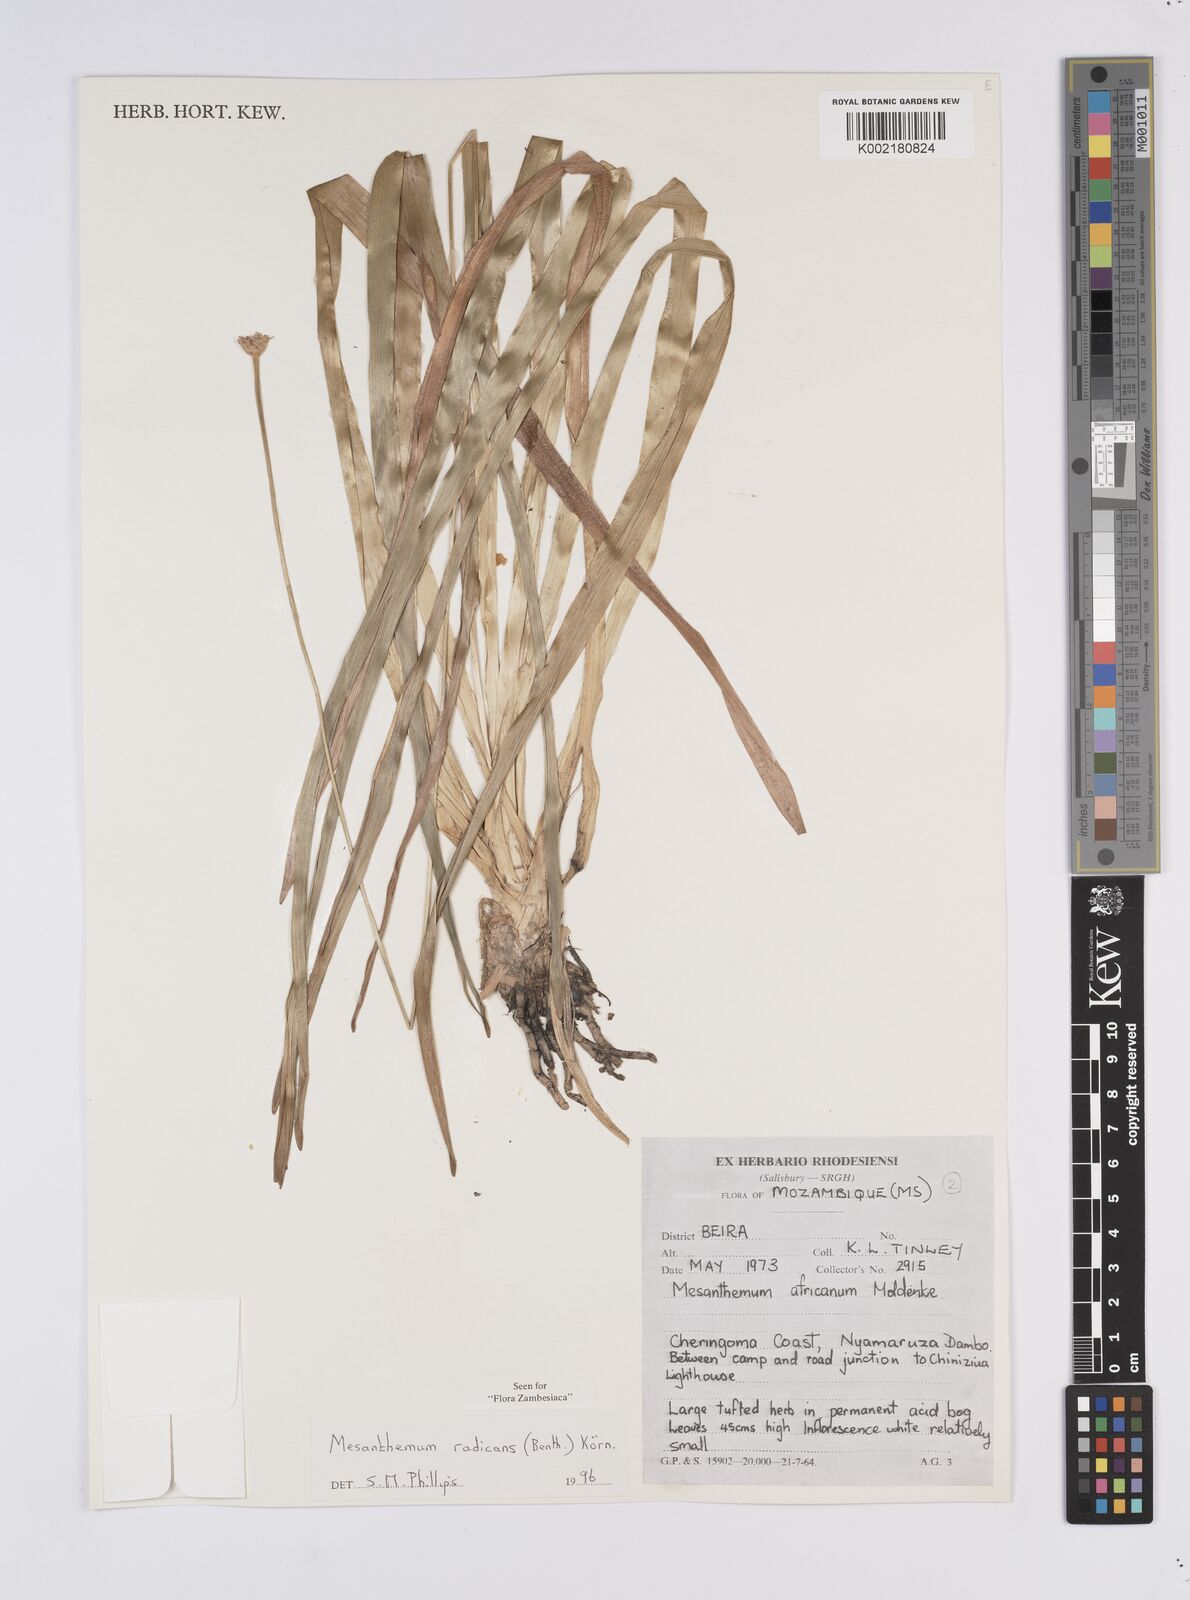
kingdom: Plantae
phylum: Tracheophyta
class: Liliopsida
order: Poales
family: Eriocaulaceae
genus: Mesanthemum
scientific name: Mesanthemum radicans
